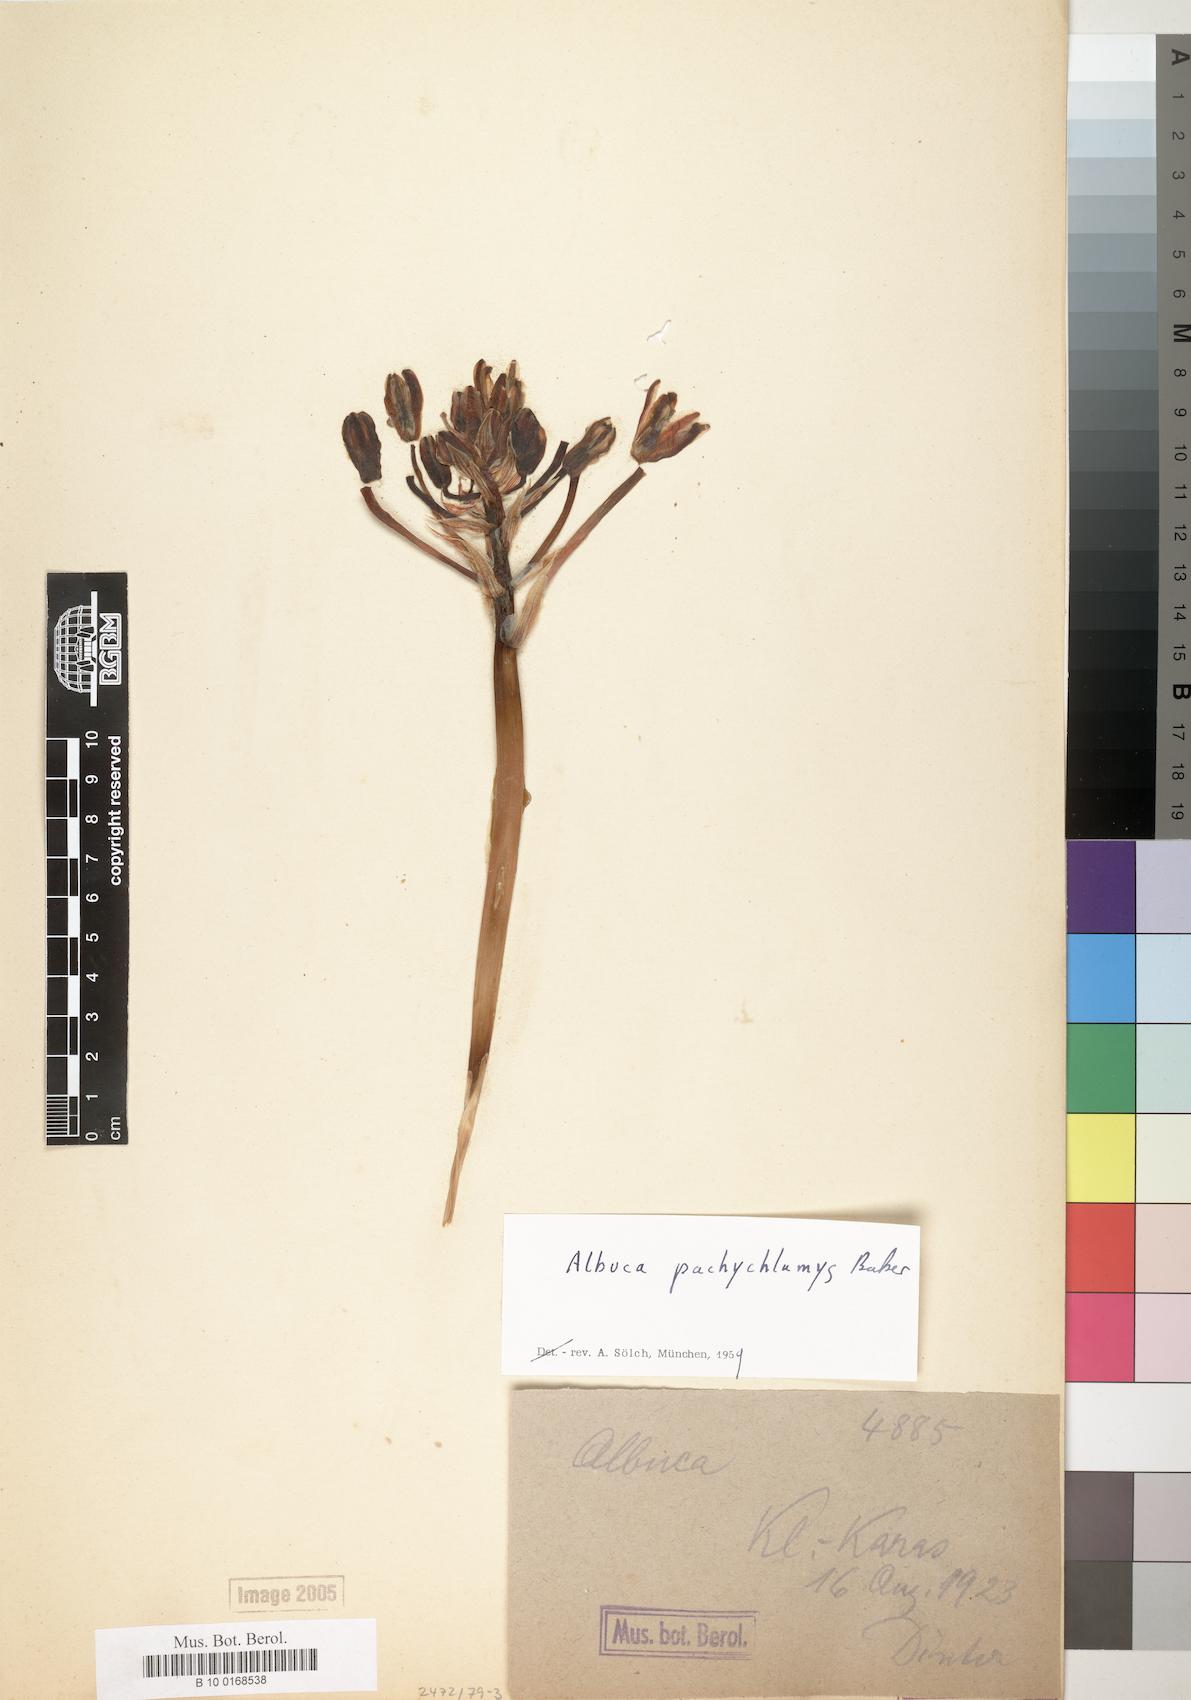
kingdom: Plantae
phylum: Tracheophyta
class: Liliopsida
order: Asparagales
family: Asparagaceae
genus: Albuca
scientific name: Albuca setosa
